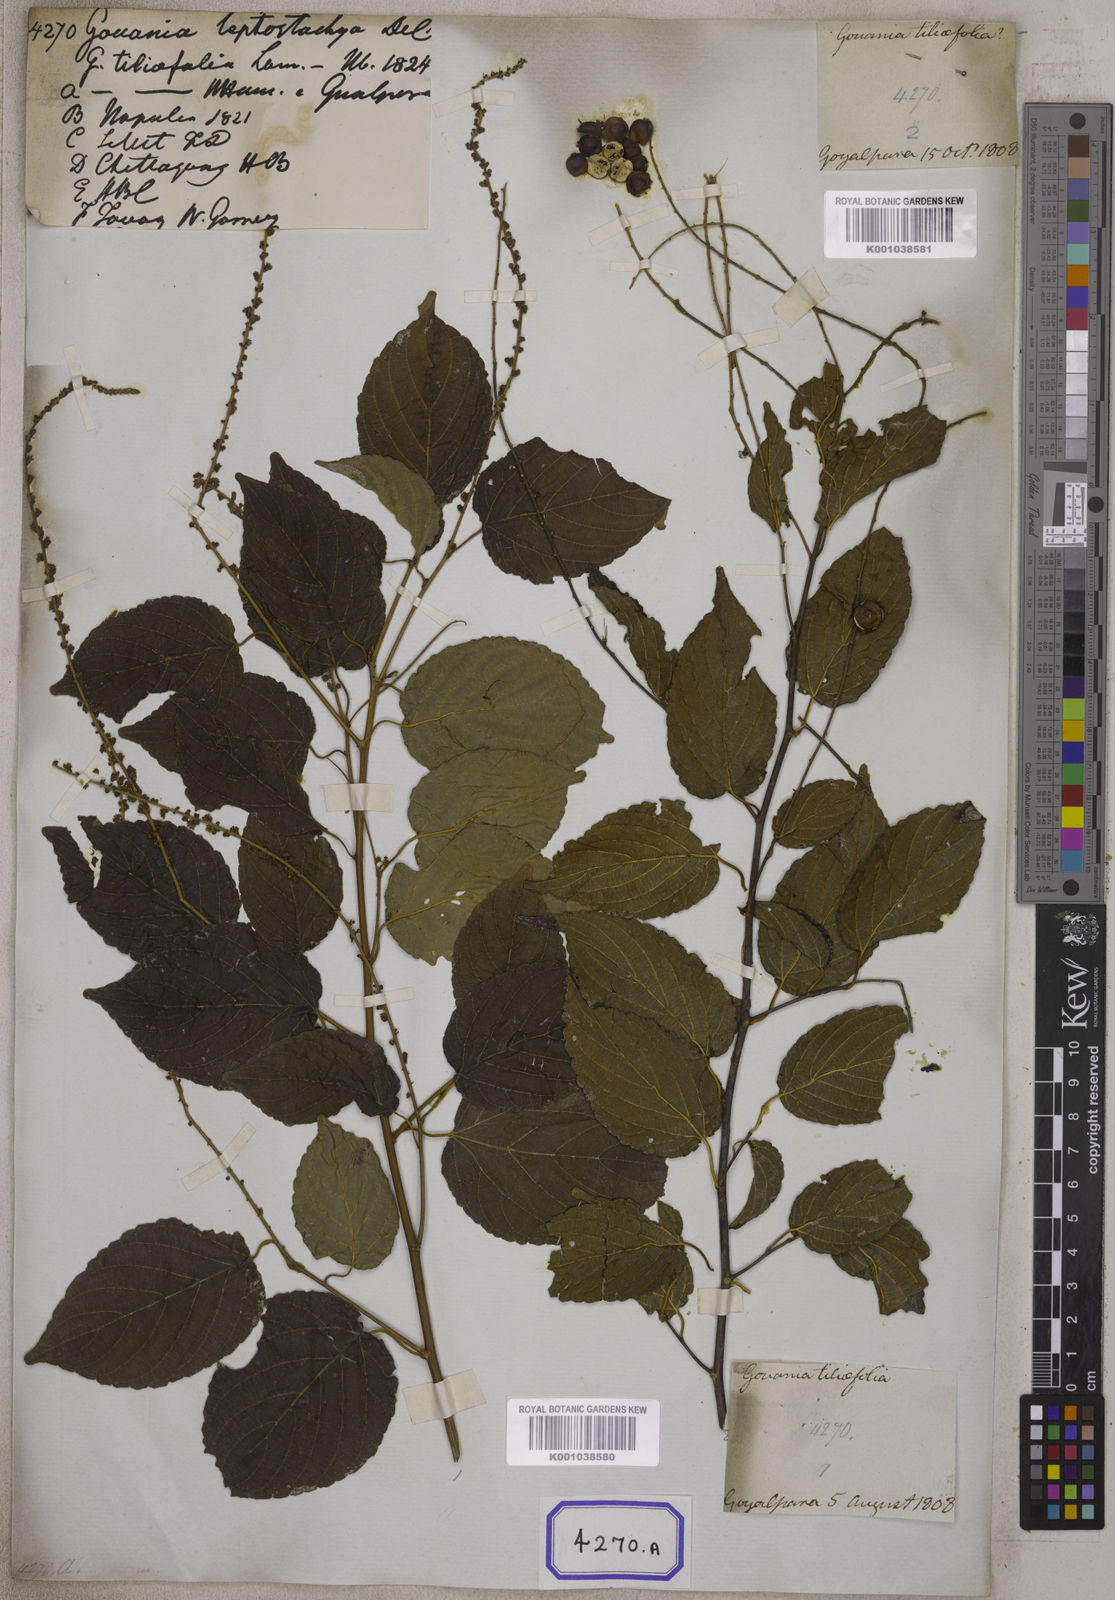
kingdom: Plantae
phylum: Tracheophyta
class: Magnoliopsida
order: Rosales
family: Rhamnaceae
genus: Gouania
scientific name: Gouania leptostachya
